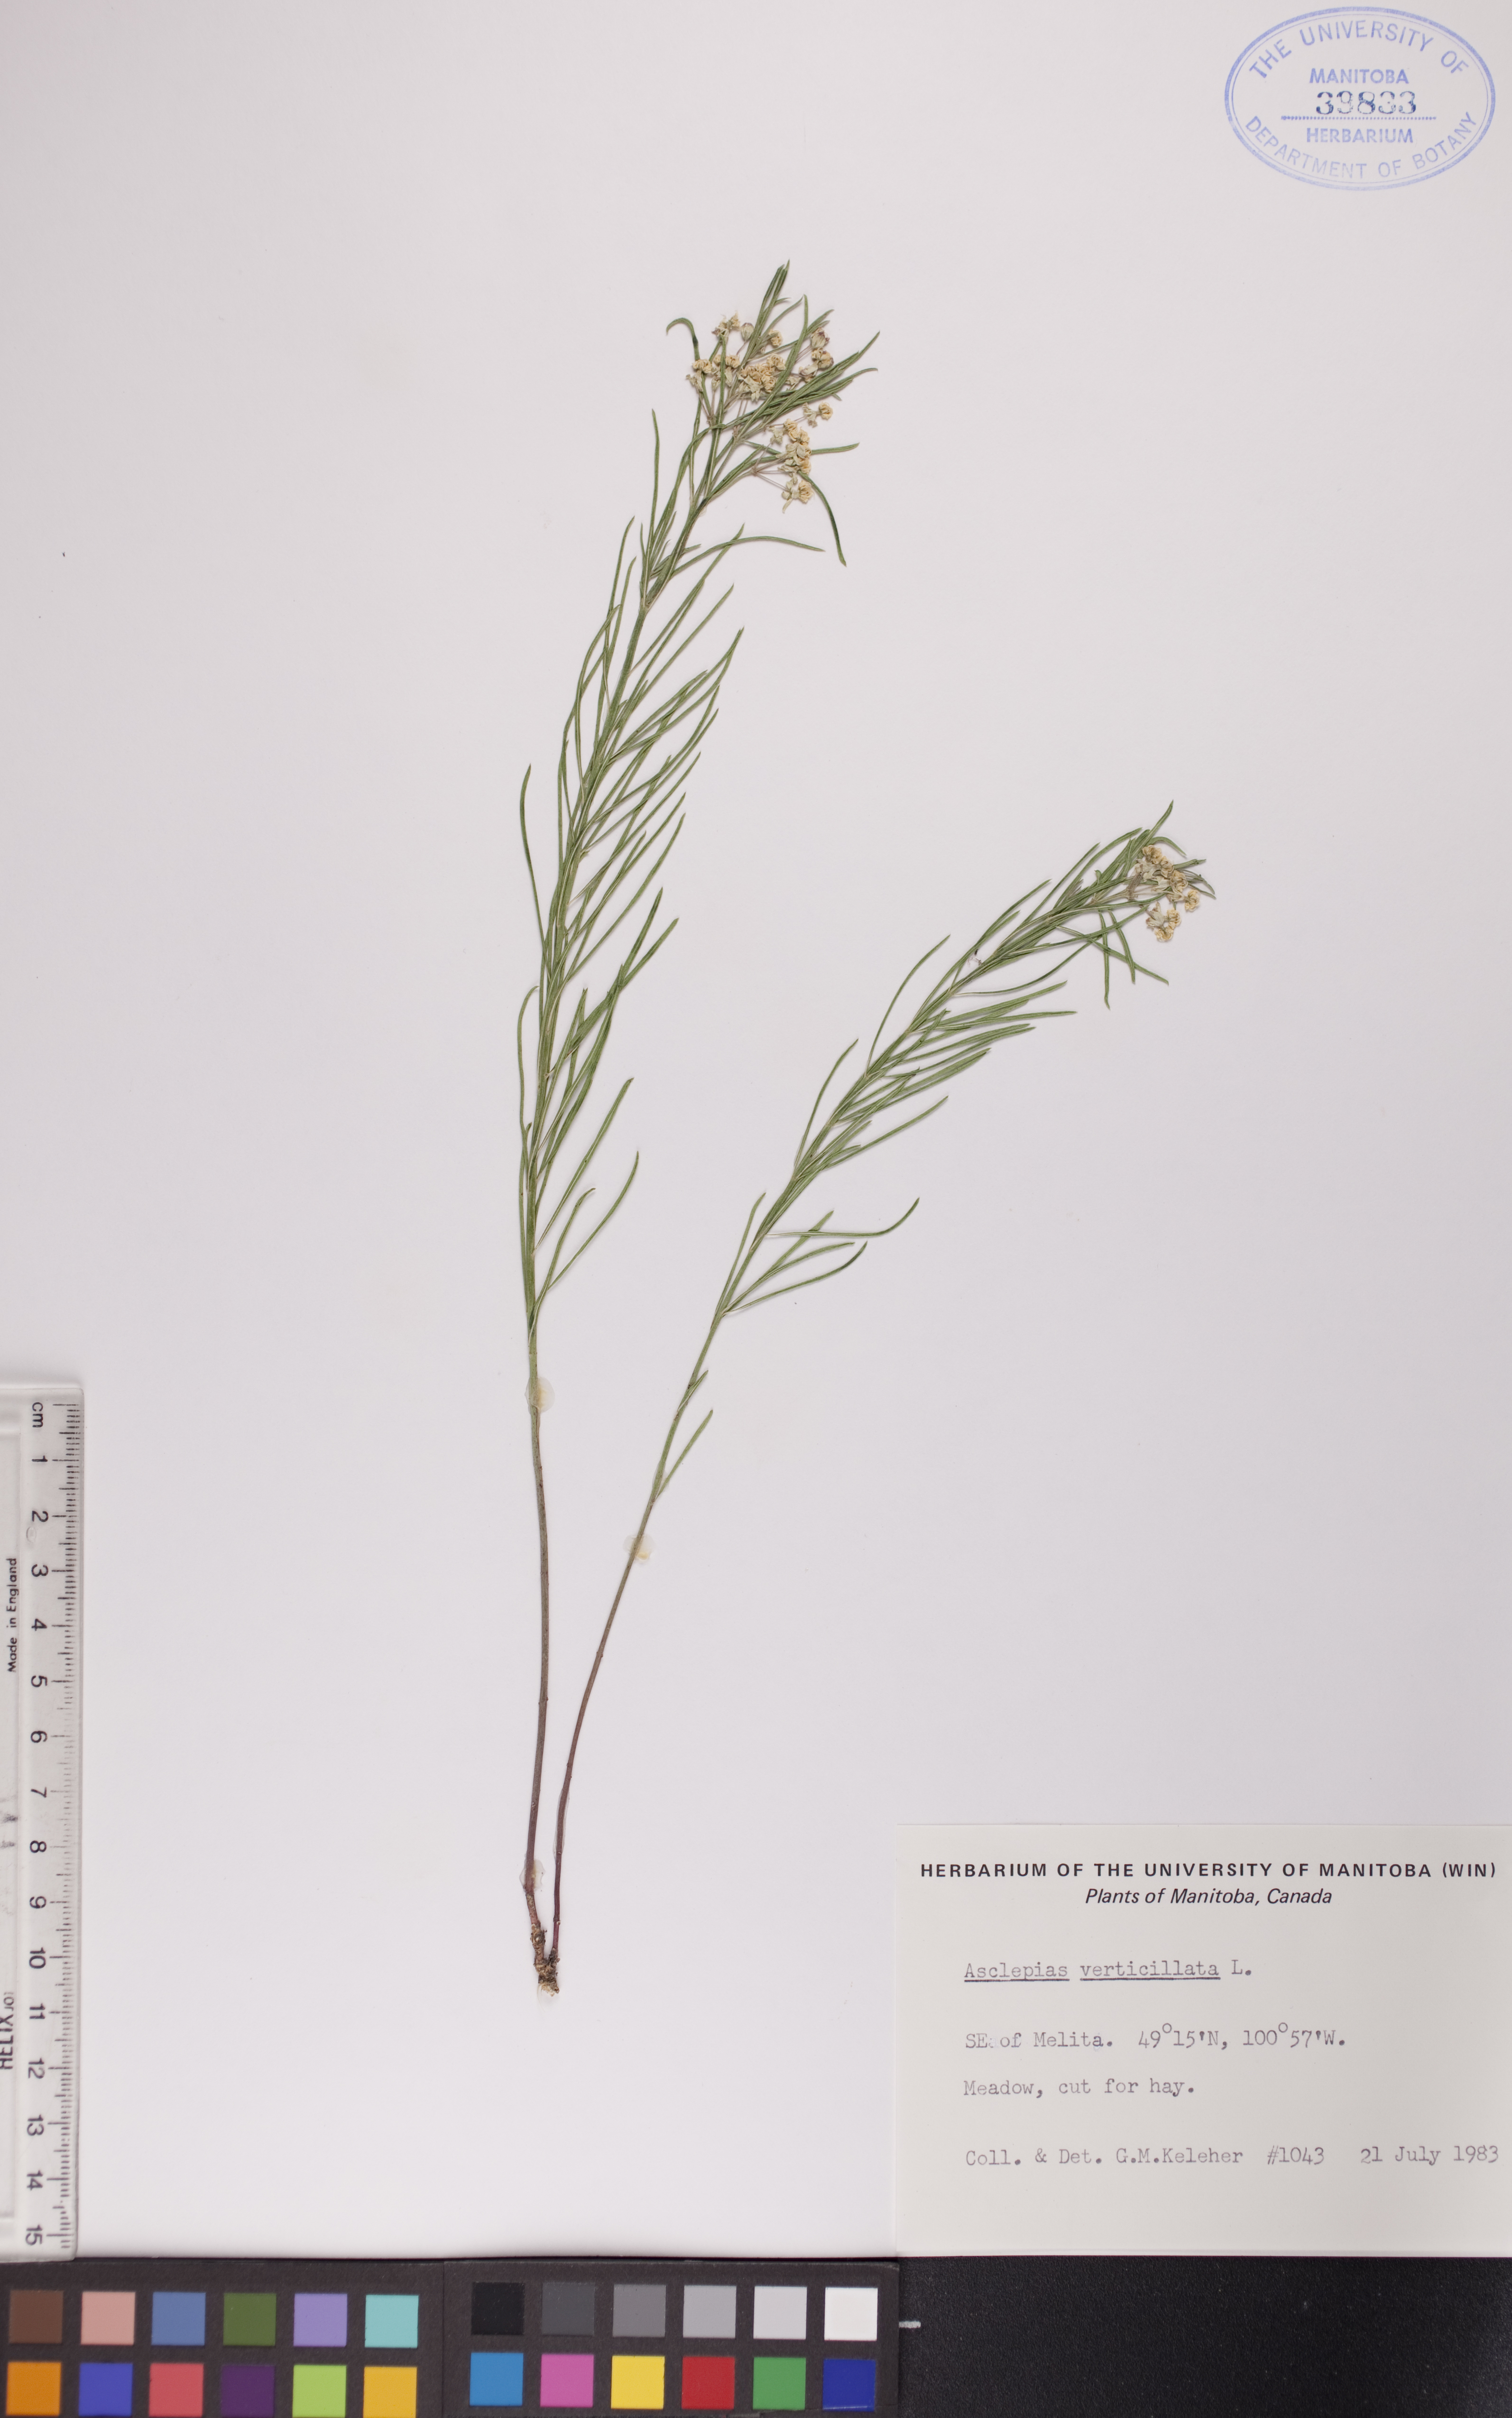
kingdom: Plantae
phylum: Tracheophyta
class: Magnoliopsida
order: Gentianales
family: Apocynaceae
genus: Asclepias
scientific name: Asclepias verticillata
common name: Eastern whorled milkweed
